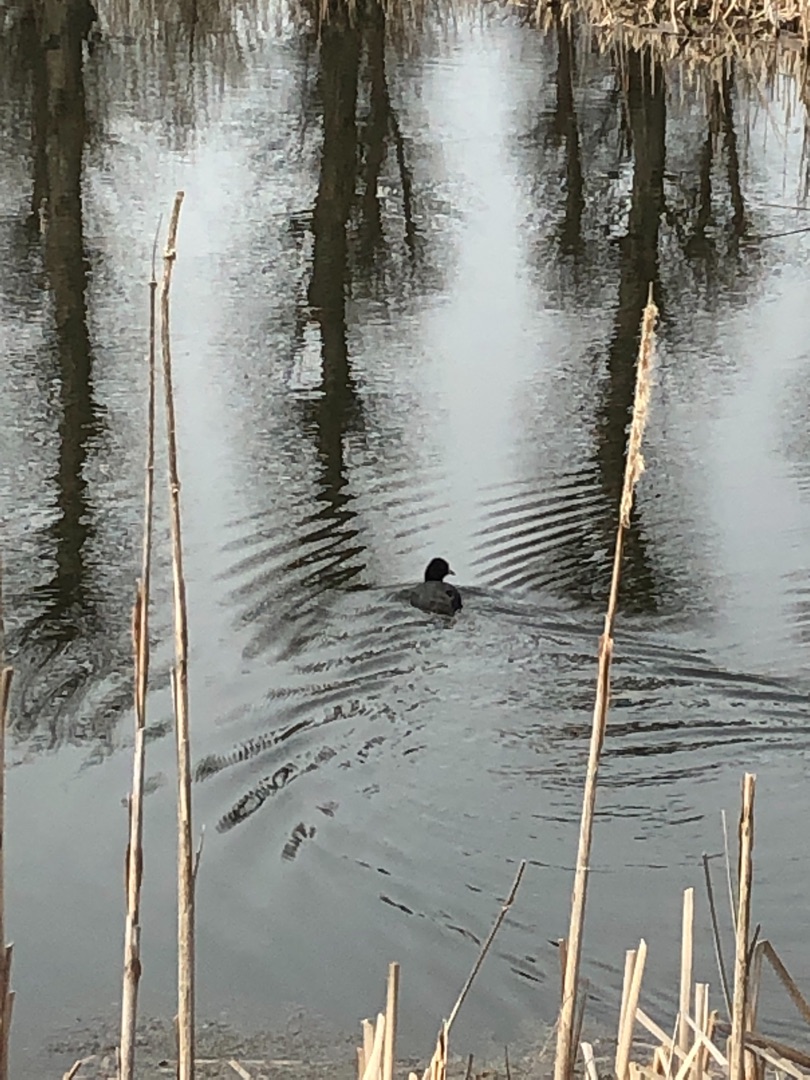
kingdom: Animalia
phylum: Chordata
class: Aves
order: Gruiformes
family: Rallidae
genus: Fulica
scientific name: Fulica atra
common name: Blishøne
